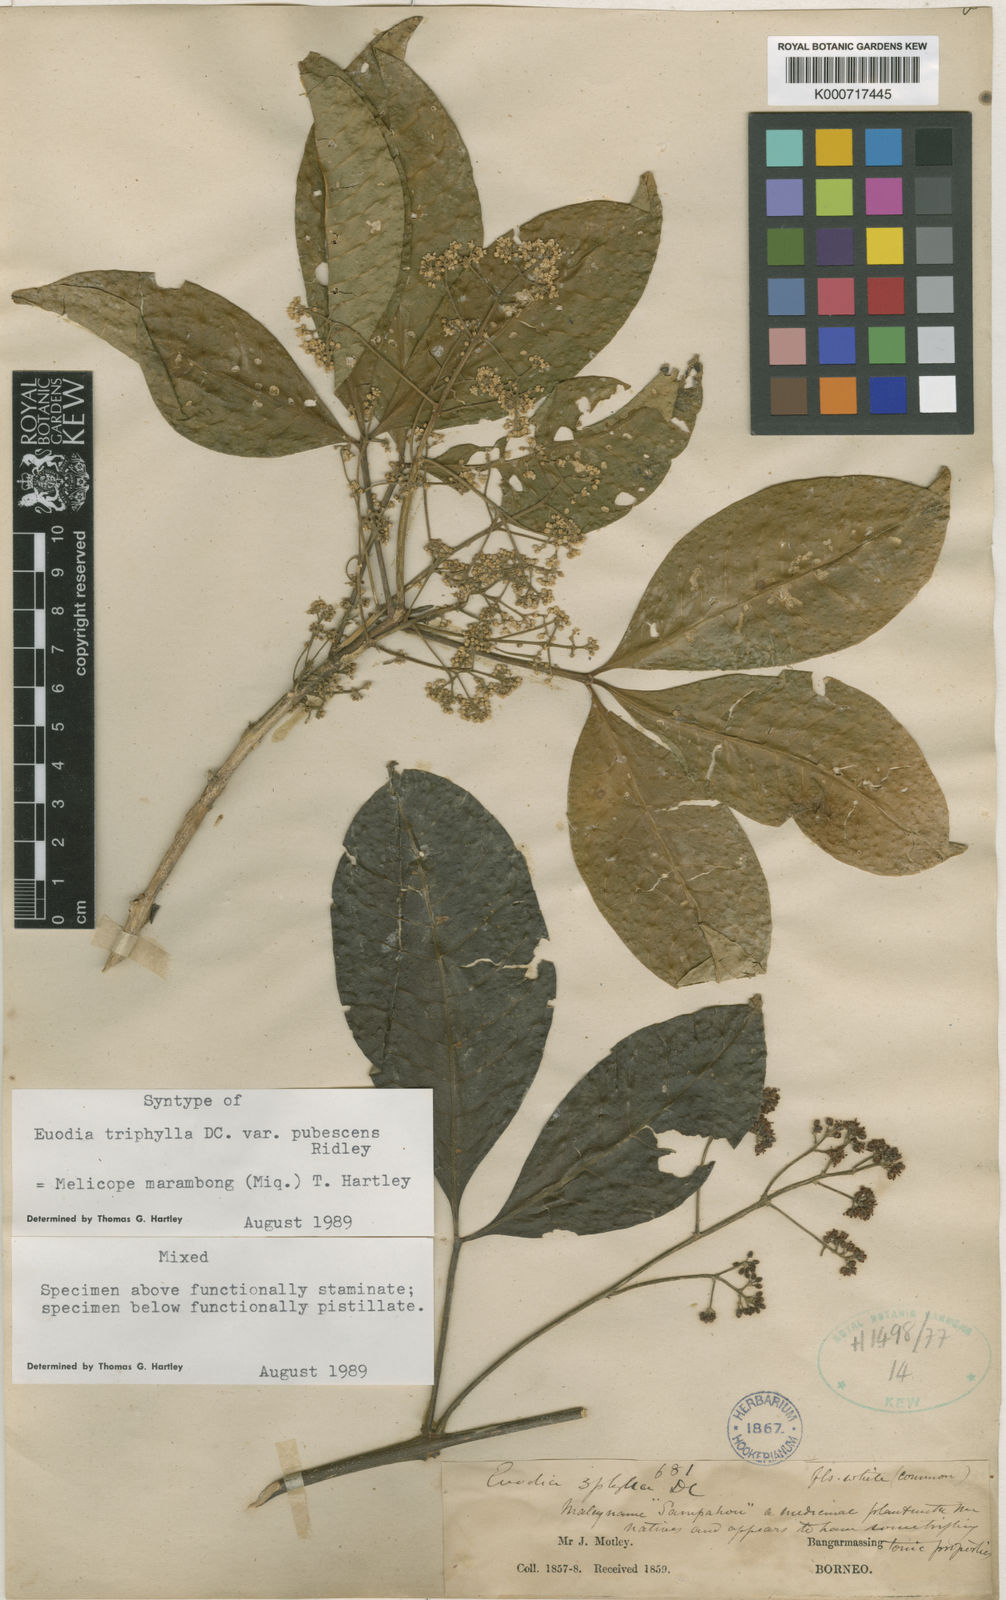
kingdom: Plantae
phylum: Tracheophyta
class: Magnoliopsida
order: Sapindales
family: Rutaceae
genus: Melicope
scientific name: Melicope
